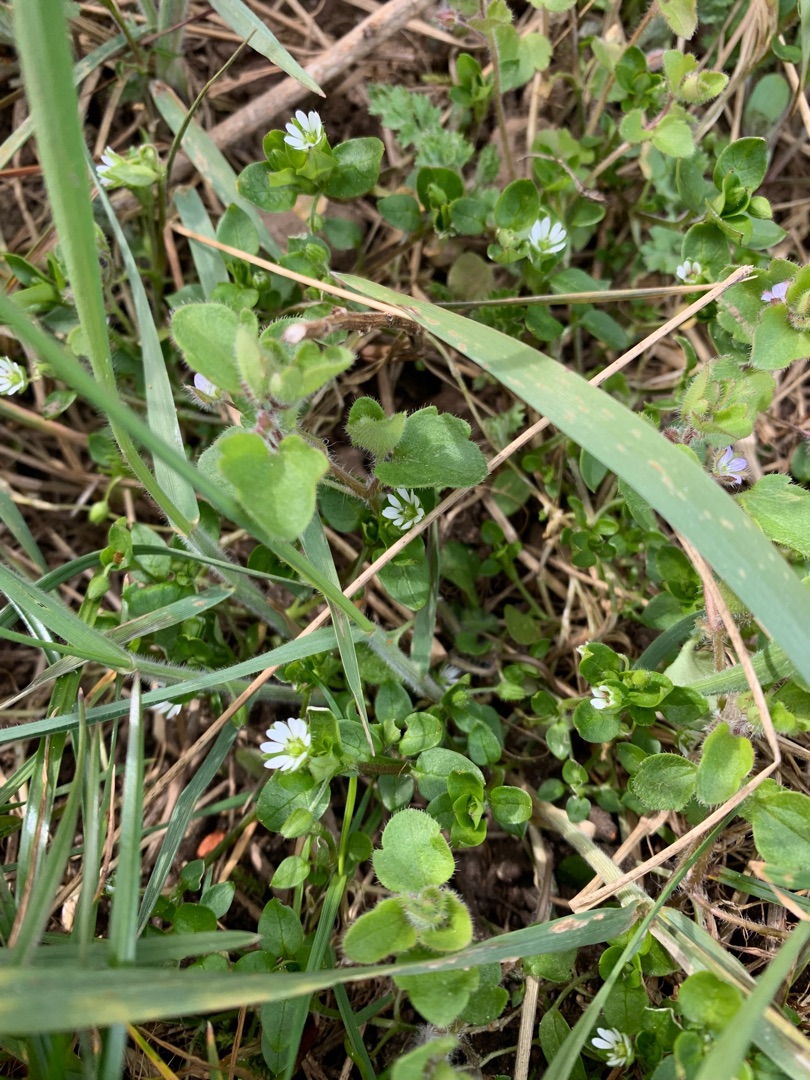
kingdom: Plantae
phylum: Tracheophyta
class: Magnoliopsida
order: Caryophyllales
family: Caryophyllaceae
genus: Stellaria
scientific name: Stellaria media
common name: Almindelig fuglegræs
